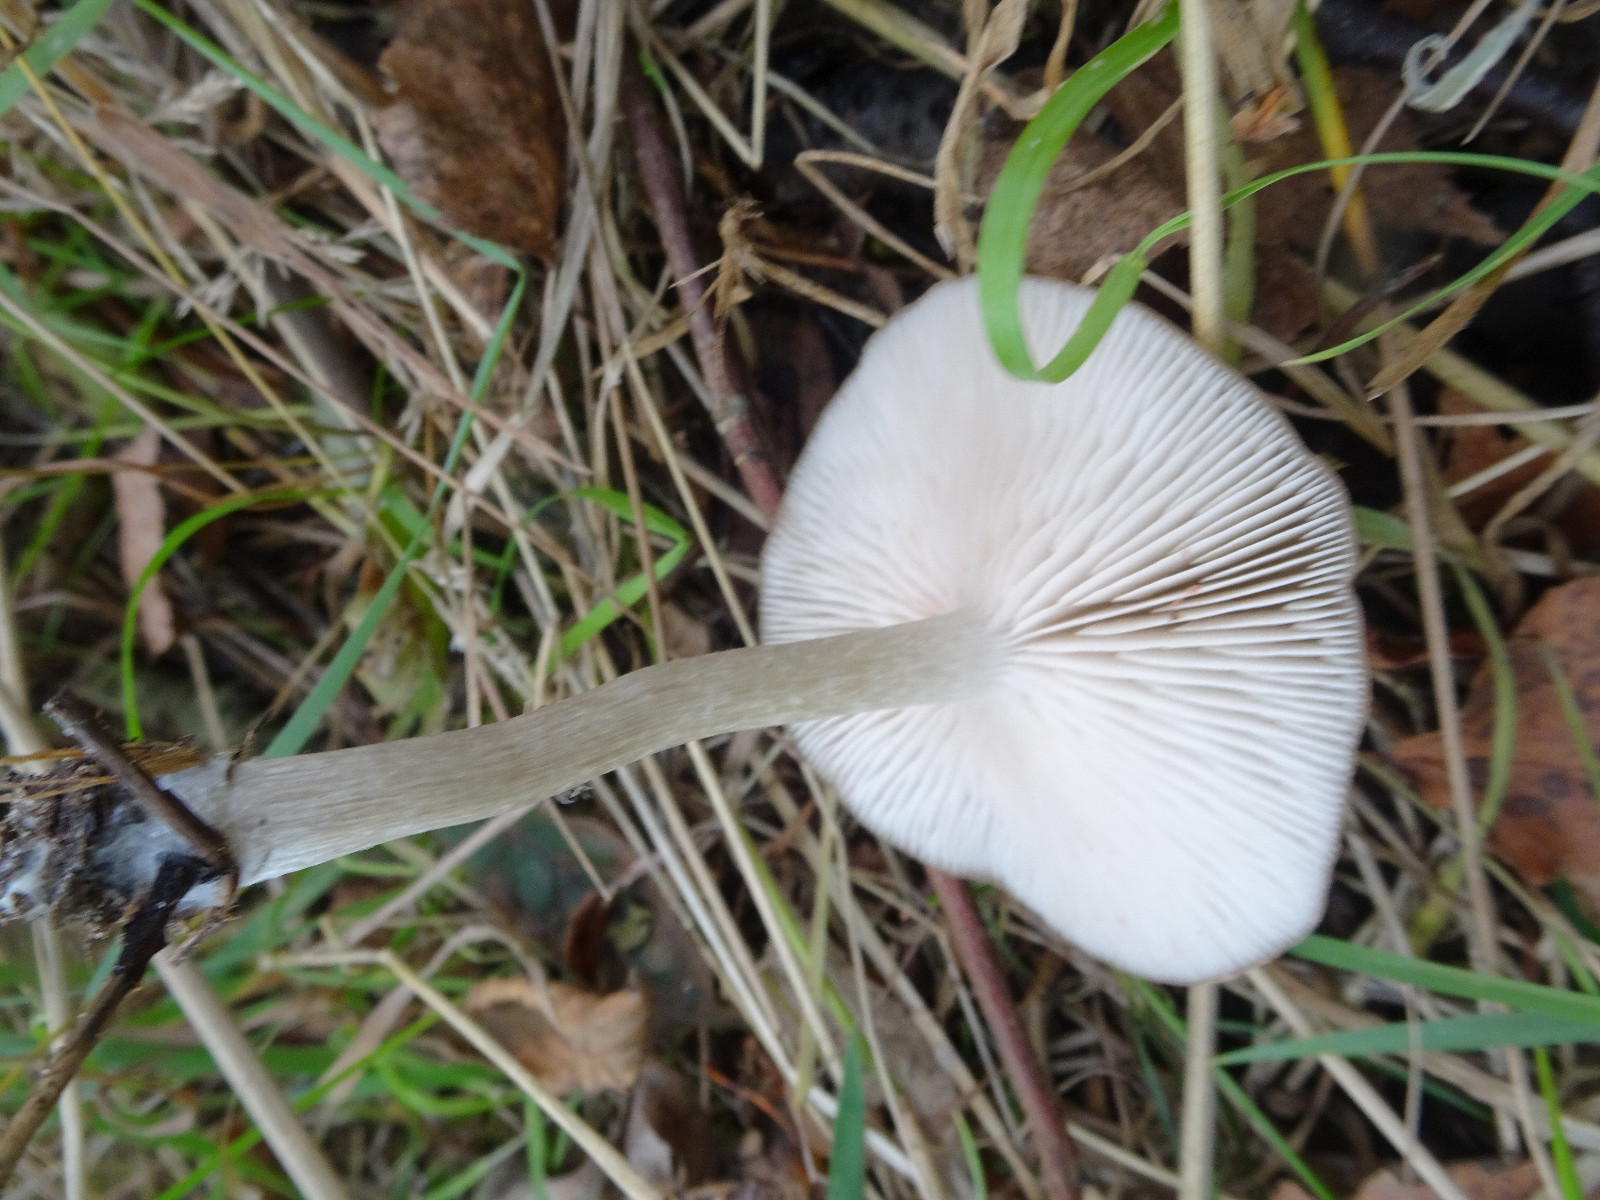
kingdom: Fungi
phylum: Basidiomycota
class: Agaricomycetes
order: Agaricales
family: Entolomataceae
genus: Entoloma
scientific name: Entoloma
